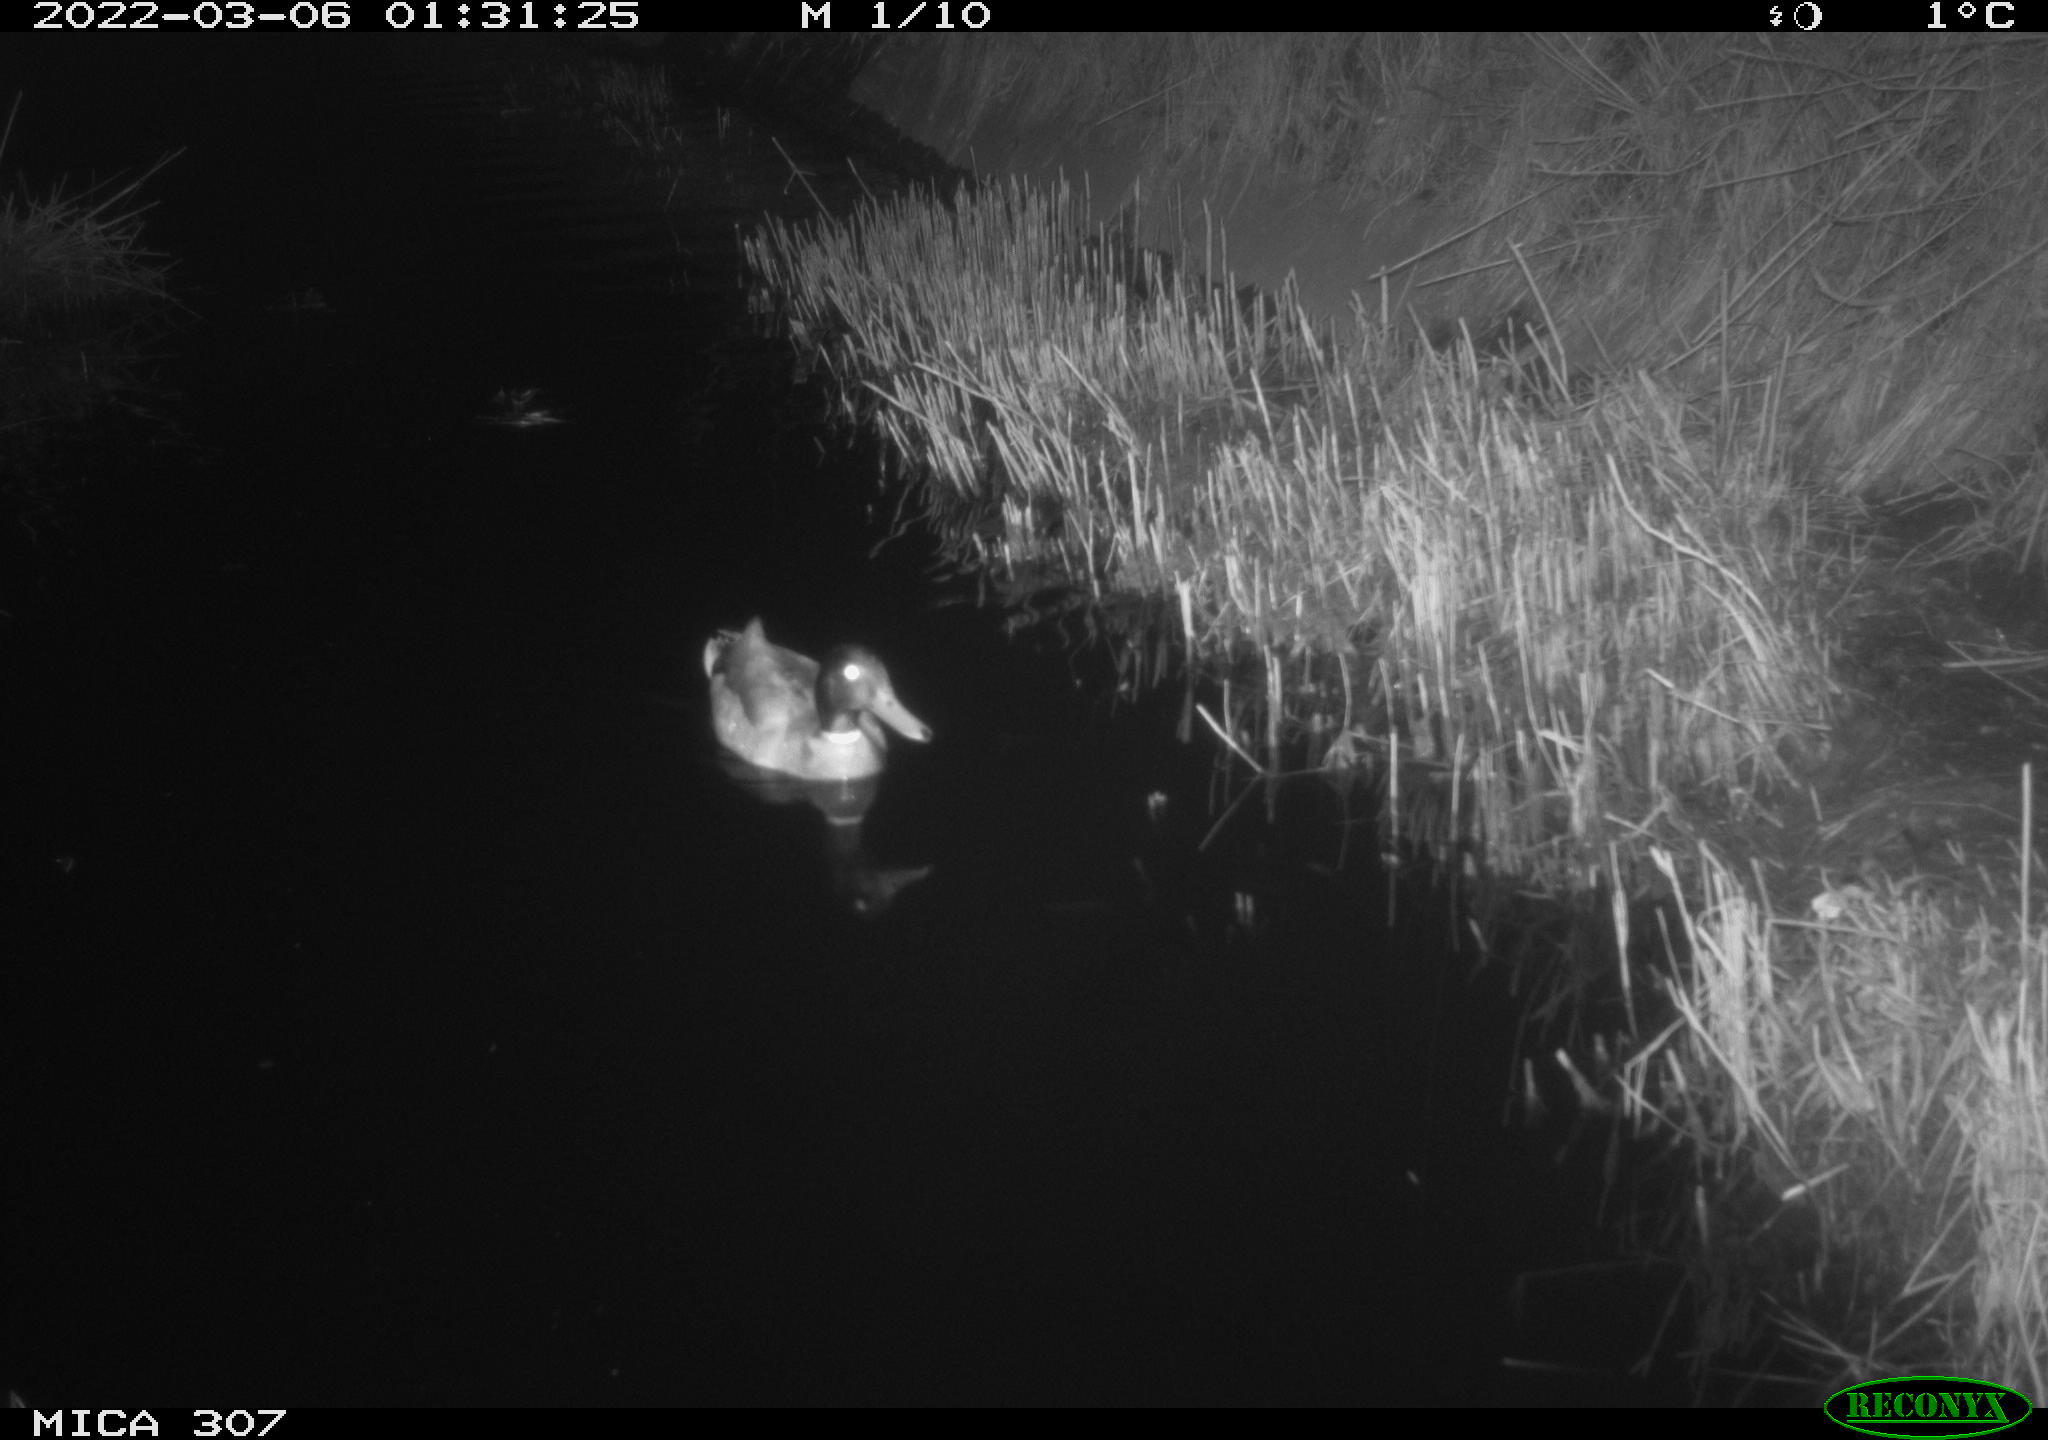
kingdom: Animalia
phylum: Chordata
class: Aves
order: Anseriformes
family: Anatidae
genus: Anas
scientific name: Anas platyrhynchos
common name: Mallard
